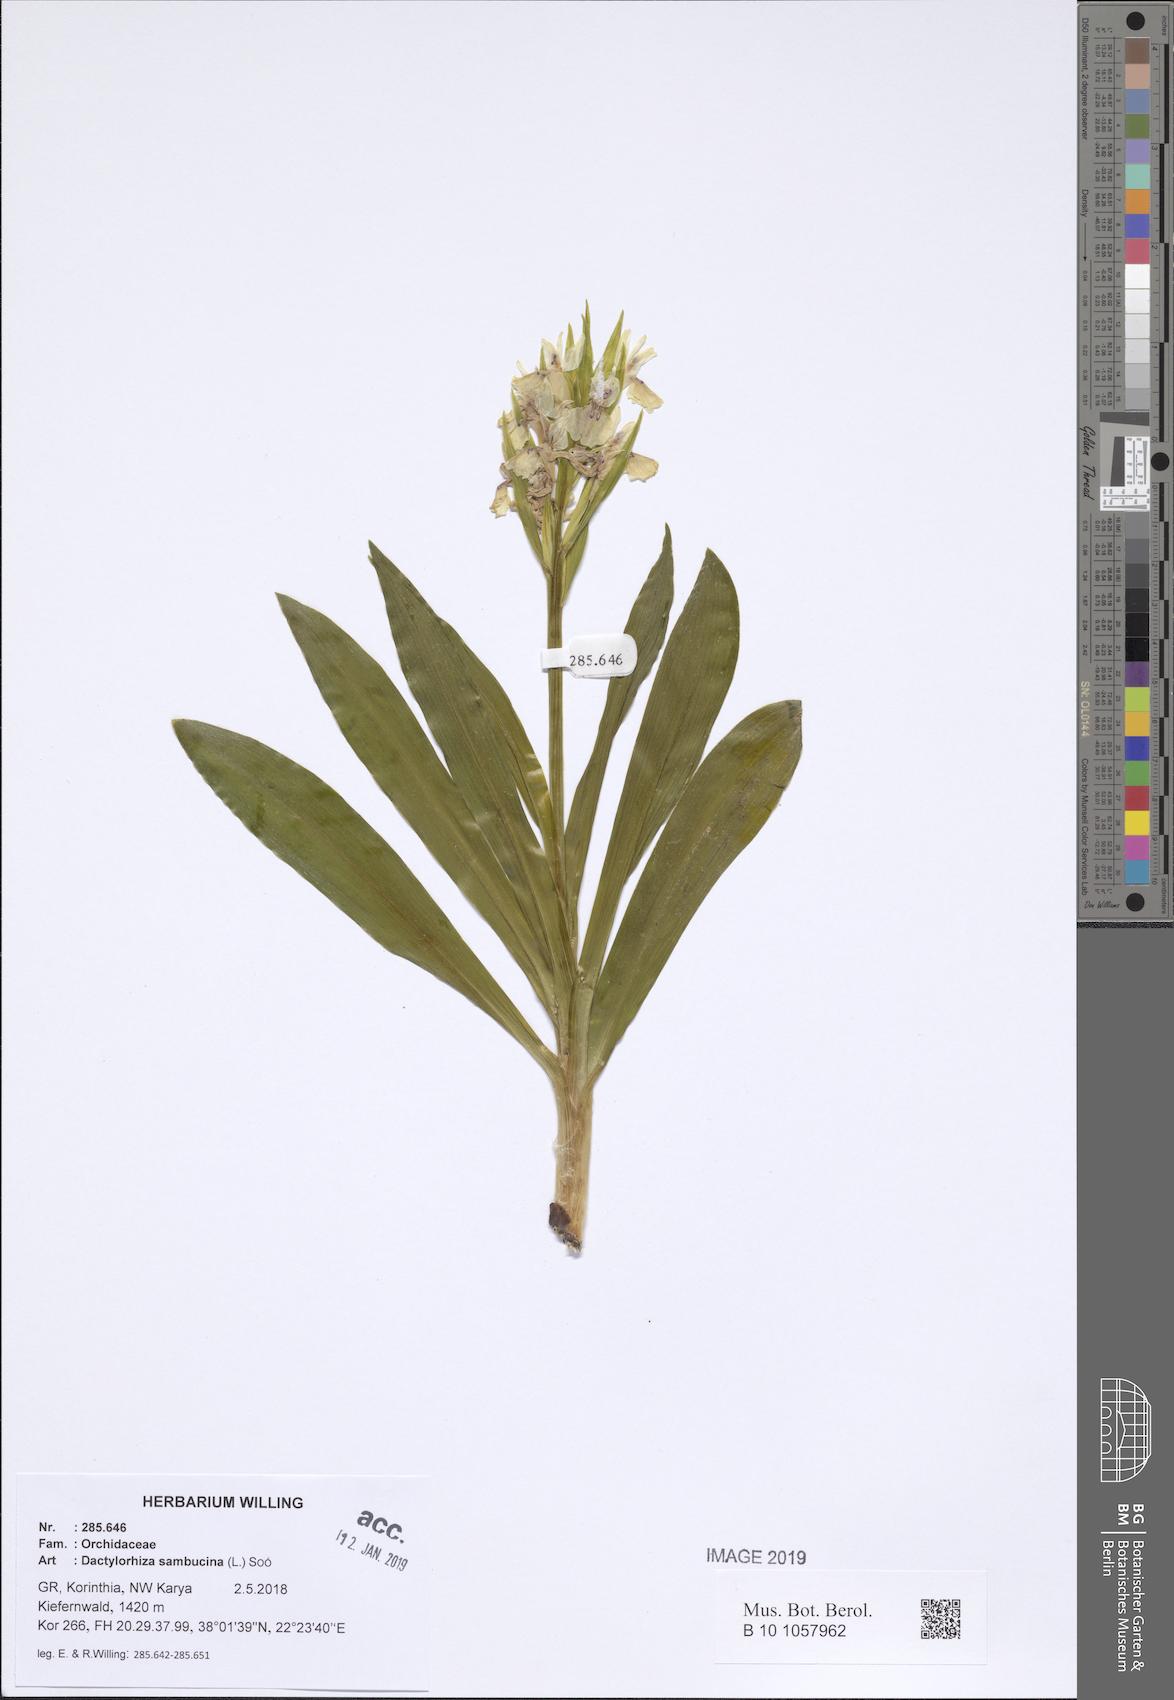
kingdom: Plantae
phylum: Tracheophyta
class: Liliopsida
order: Asparagales
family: Orchidaceae
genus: Dactylorhiza
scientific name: Dactylorhiza sambucina
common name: Elder-flowered orchid
